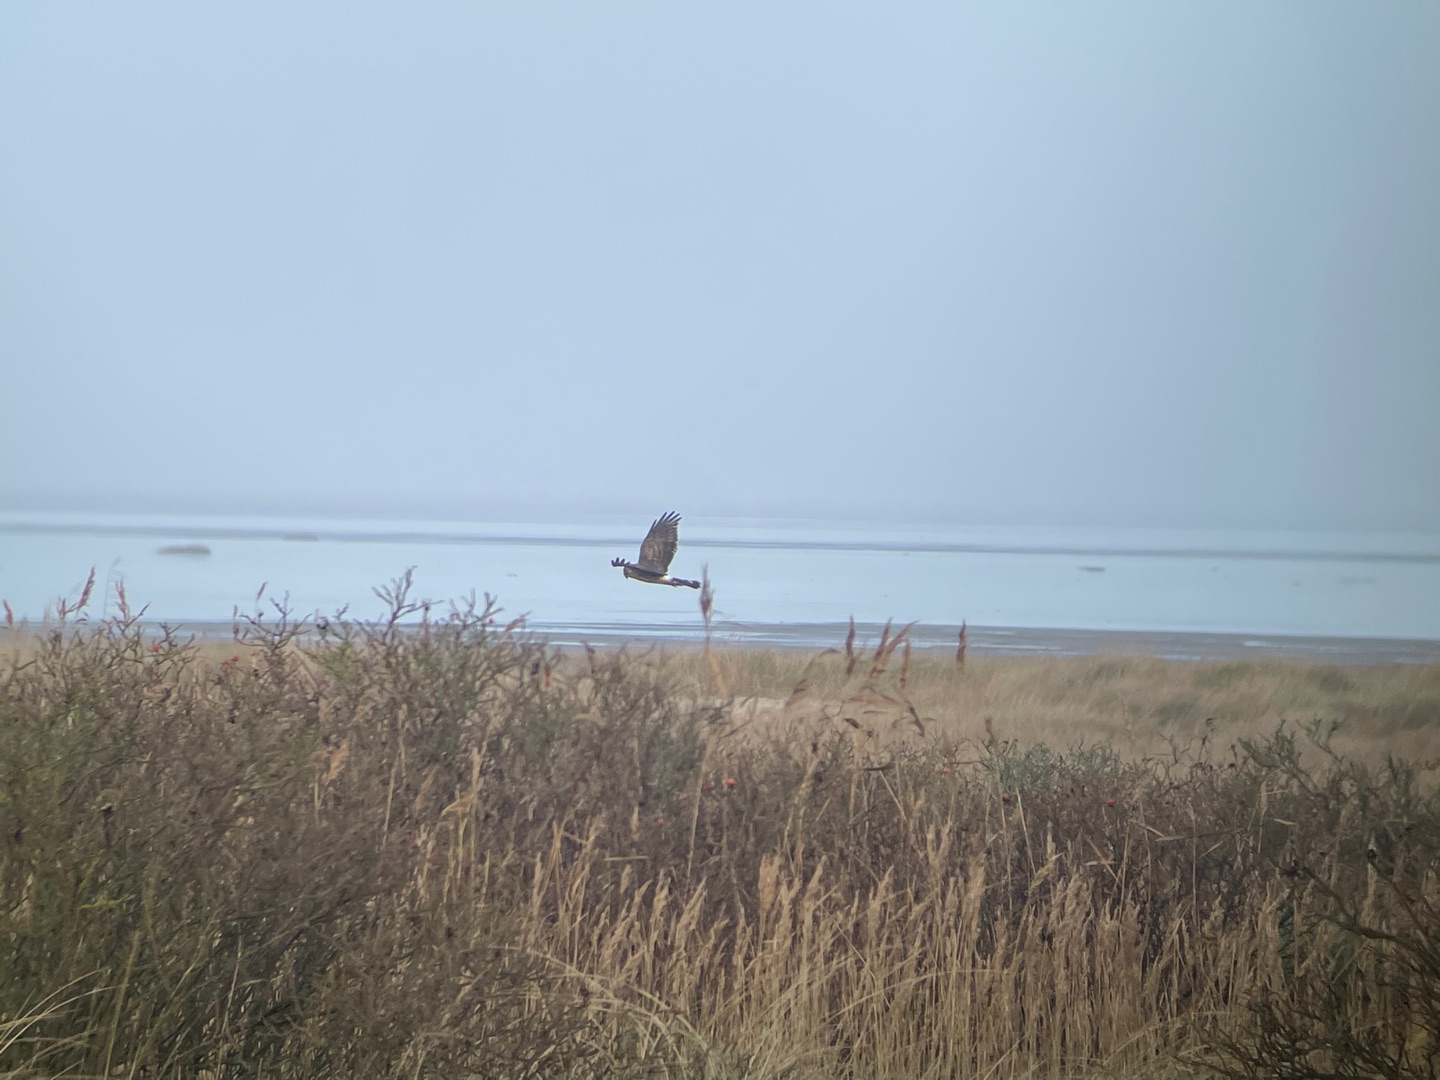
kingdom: Animalia
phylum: Chordata
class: Aves
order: Accipitriformes
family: Accipitridae
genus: Circus
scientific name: Circus cyaneus
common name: Blå kærhøg
